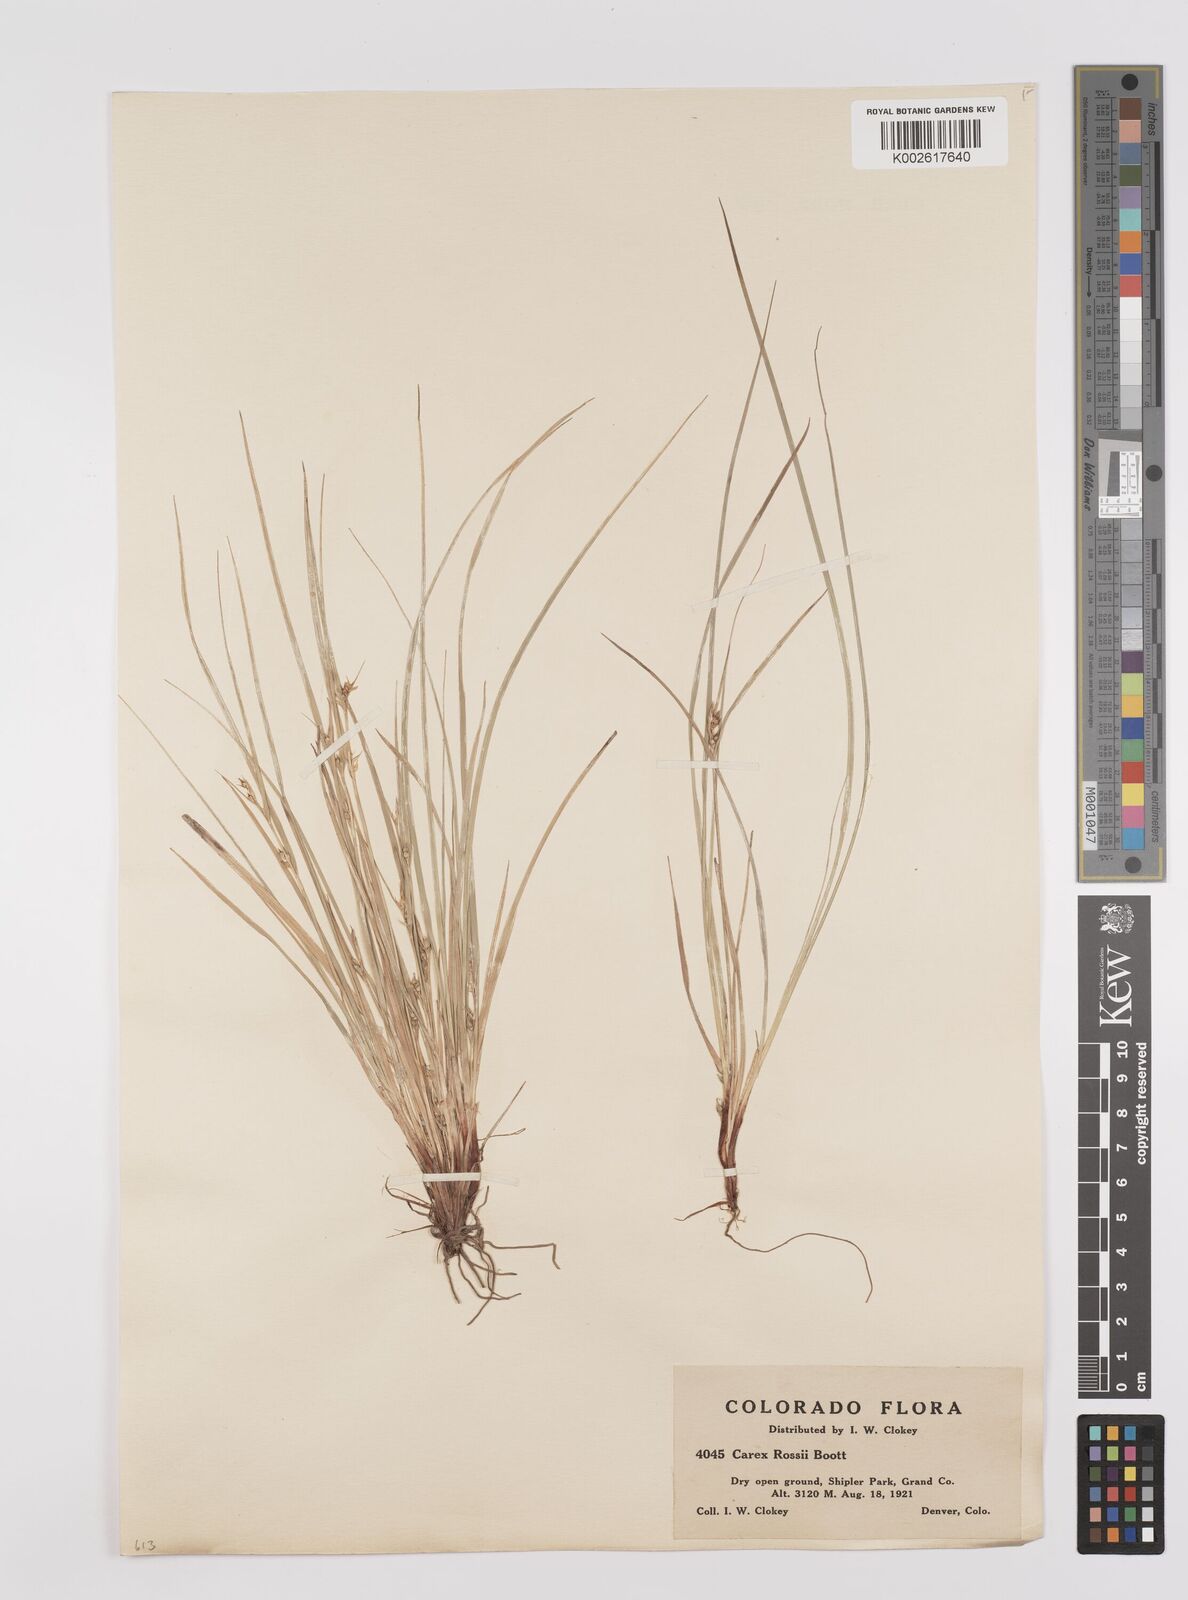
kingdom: Plantae
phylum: Tracheophyta
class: Liliopsida
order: Poales
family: Cyperaceae
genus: Carex
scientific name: Carex rossii
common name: Ross' sedge
